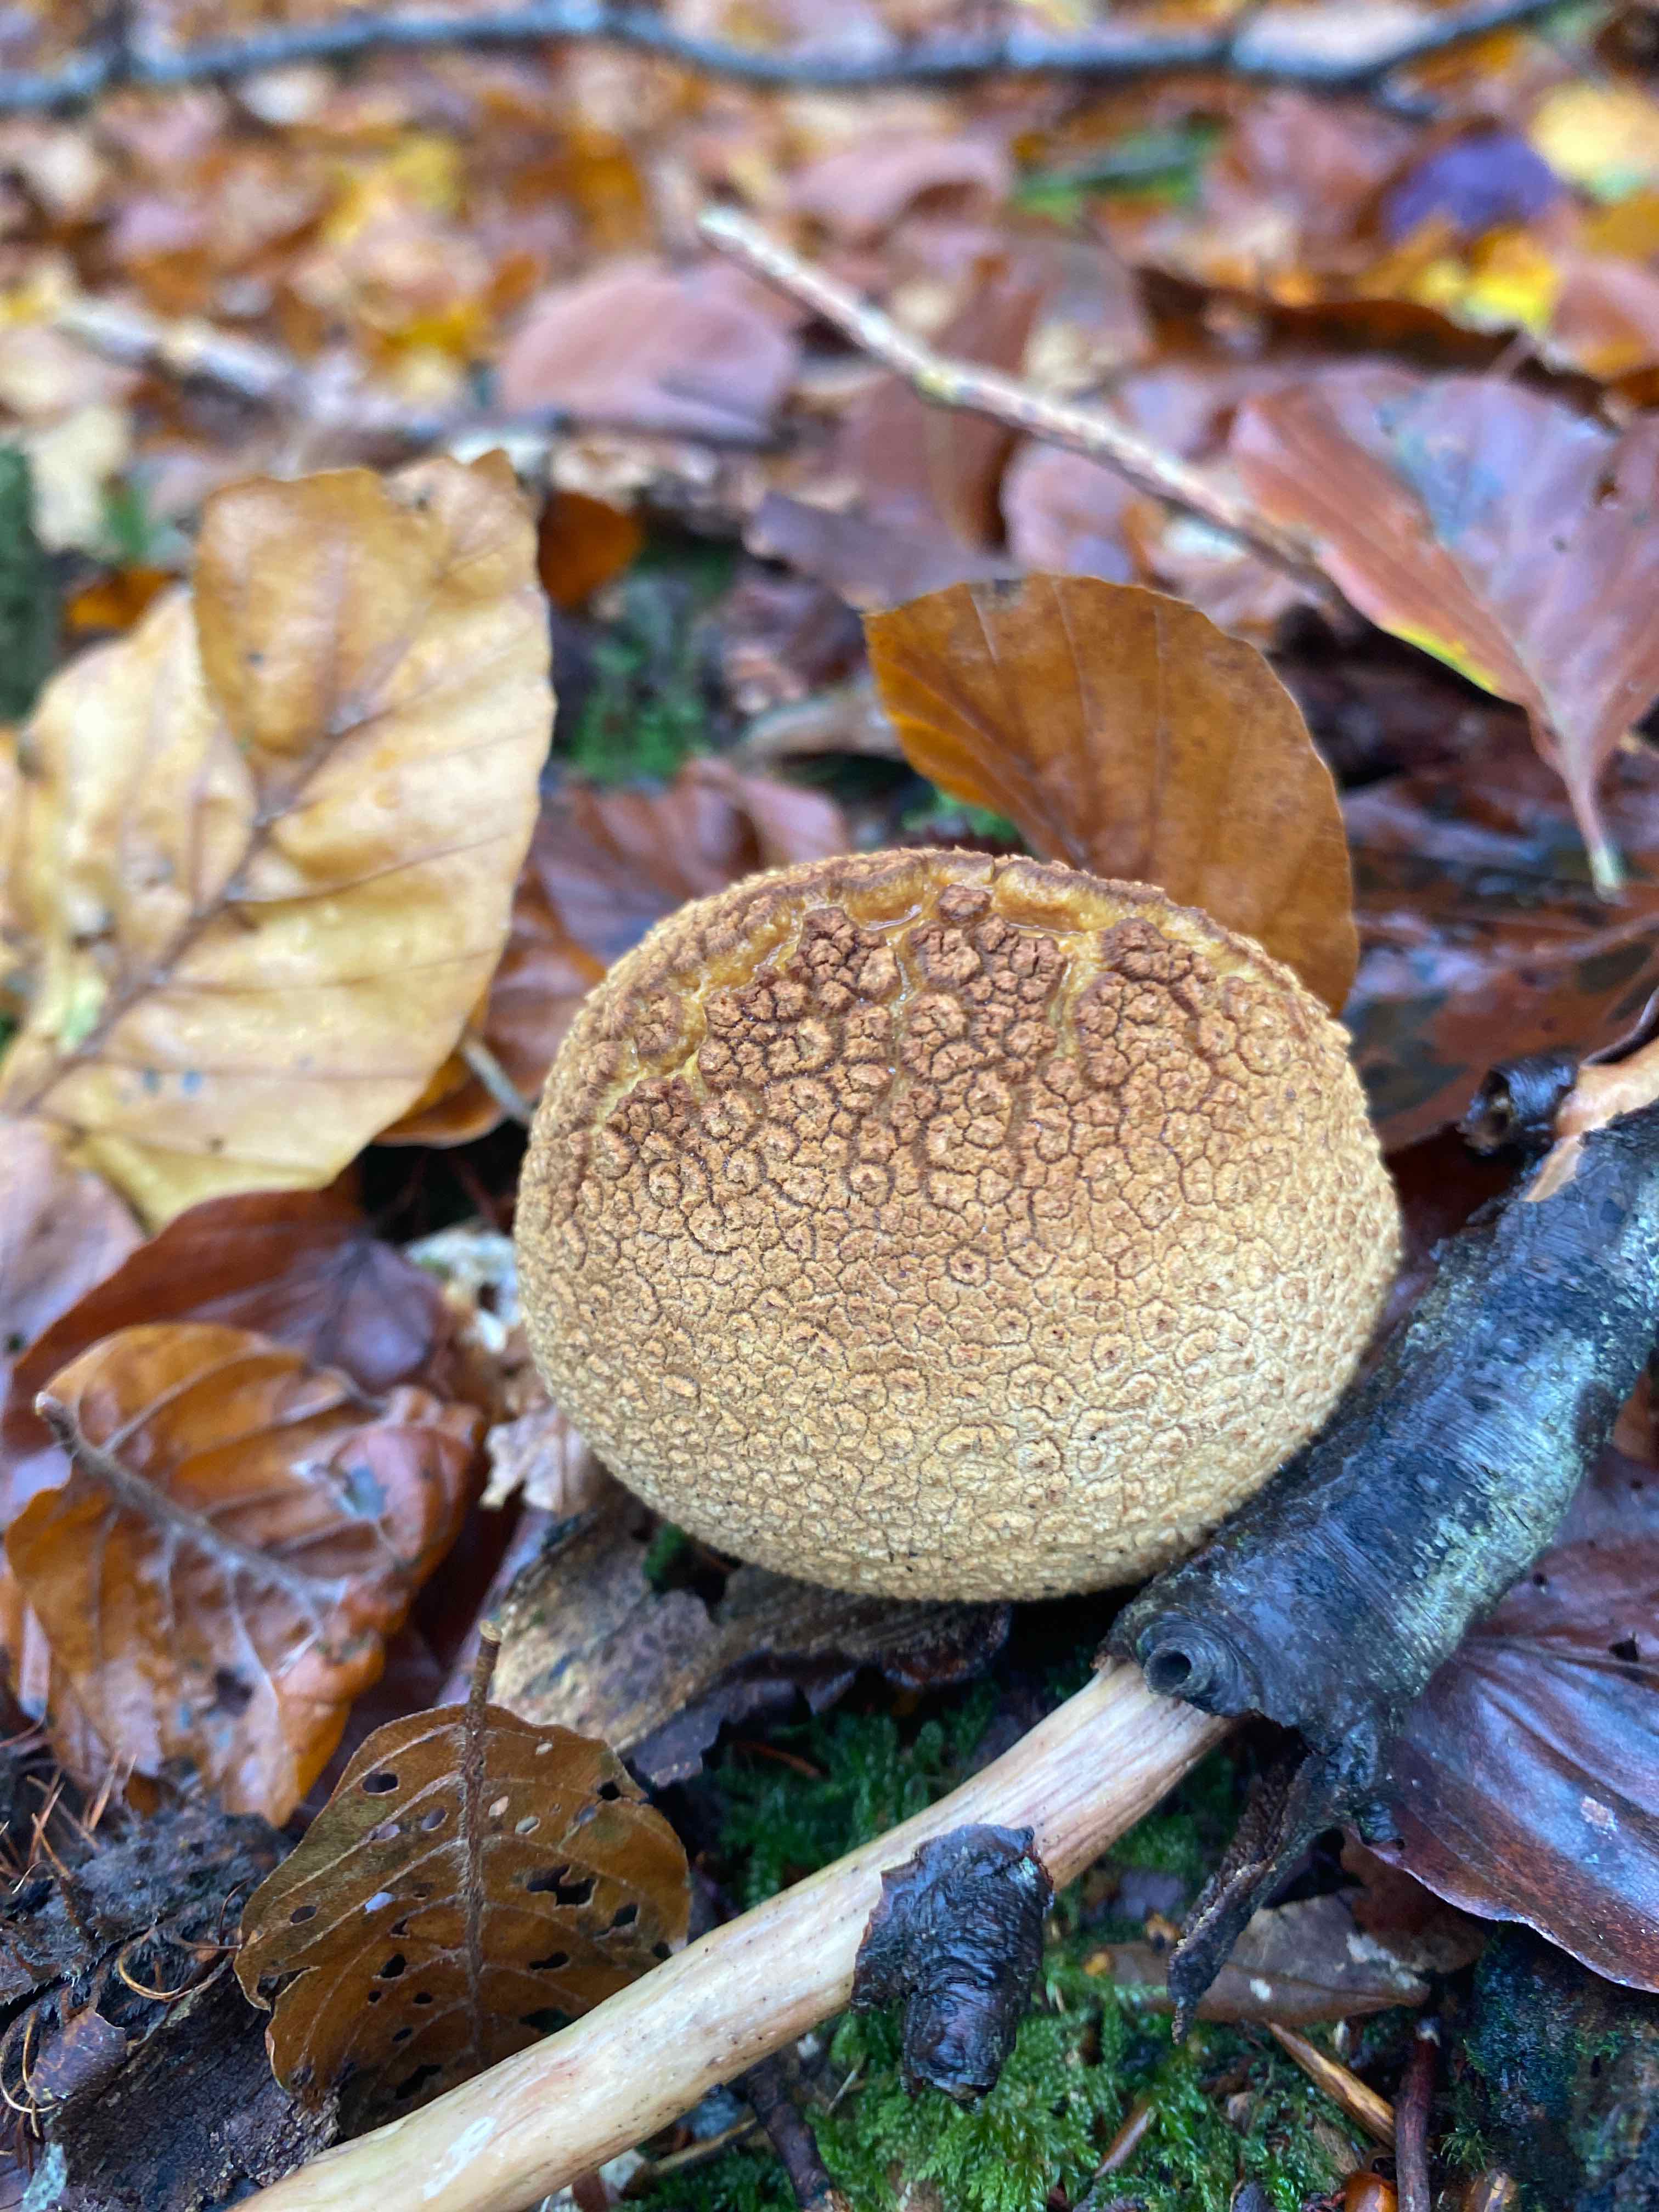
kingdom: Fungi
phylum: Basidiomycota
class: Agaricomycetes
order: Boletales
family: Sclerodermataceae
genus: Scleroderma
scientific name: Scleroderma citrinum
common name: almindelig bruskbold
